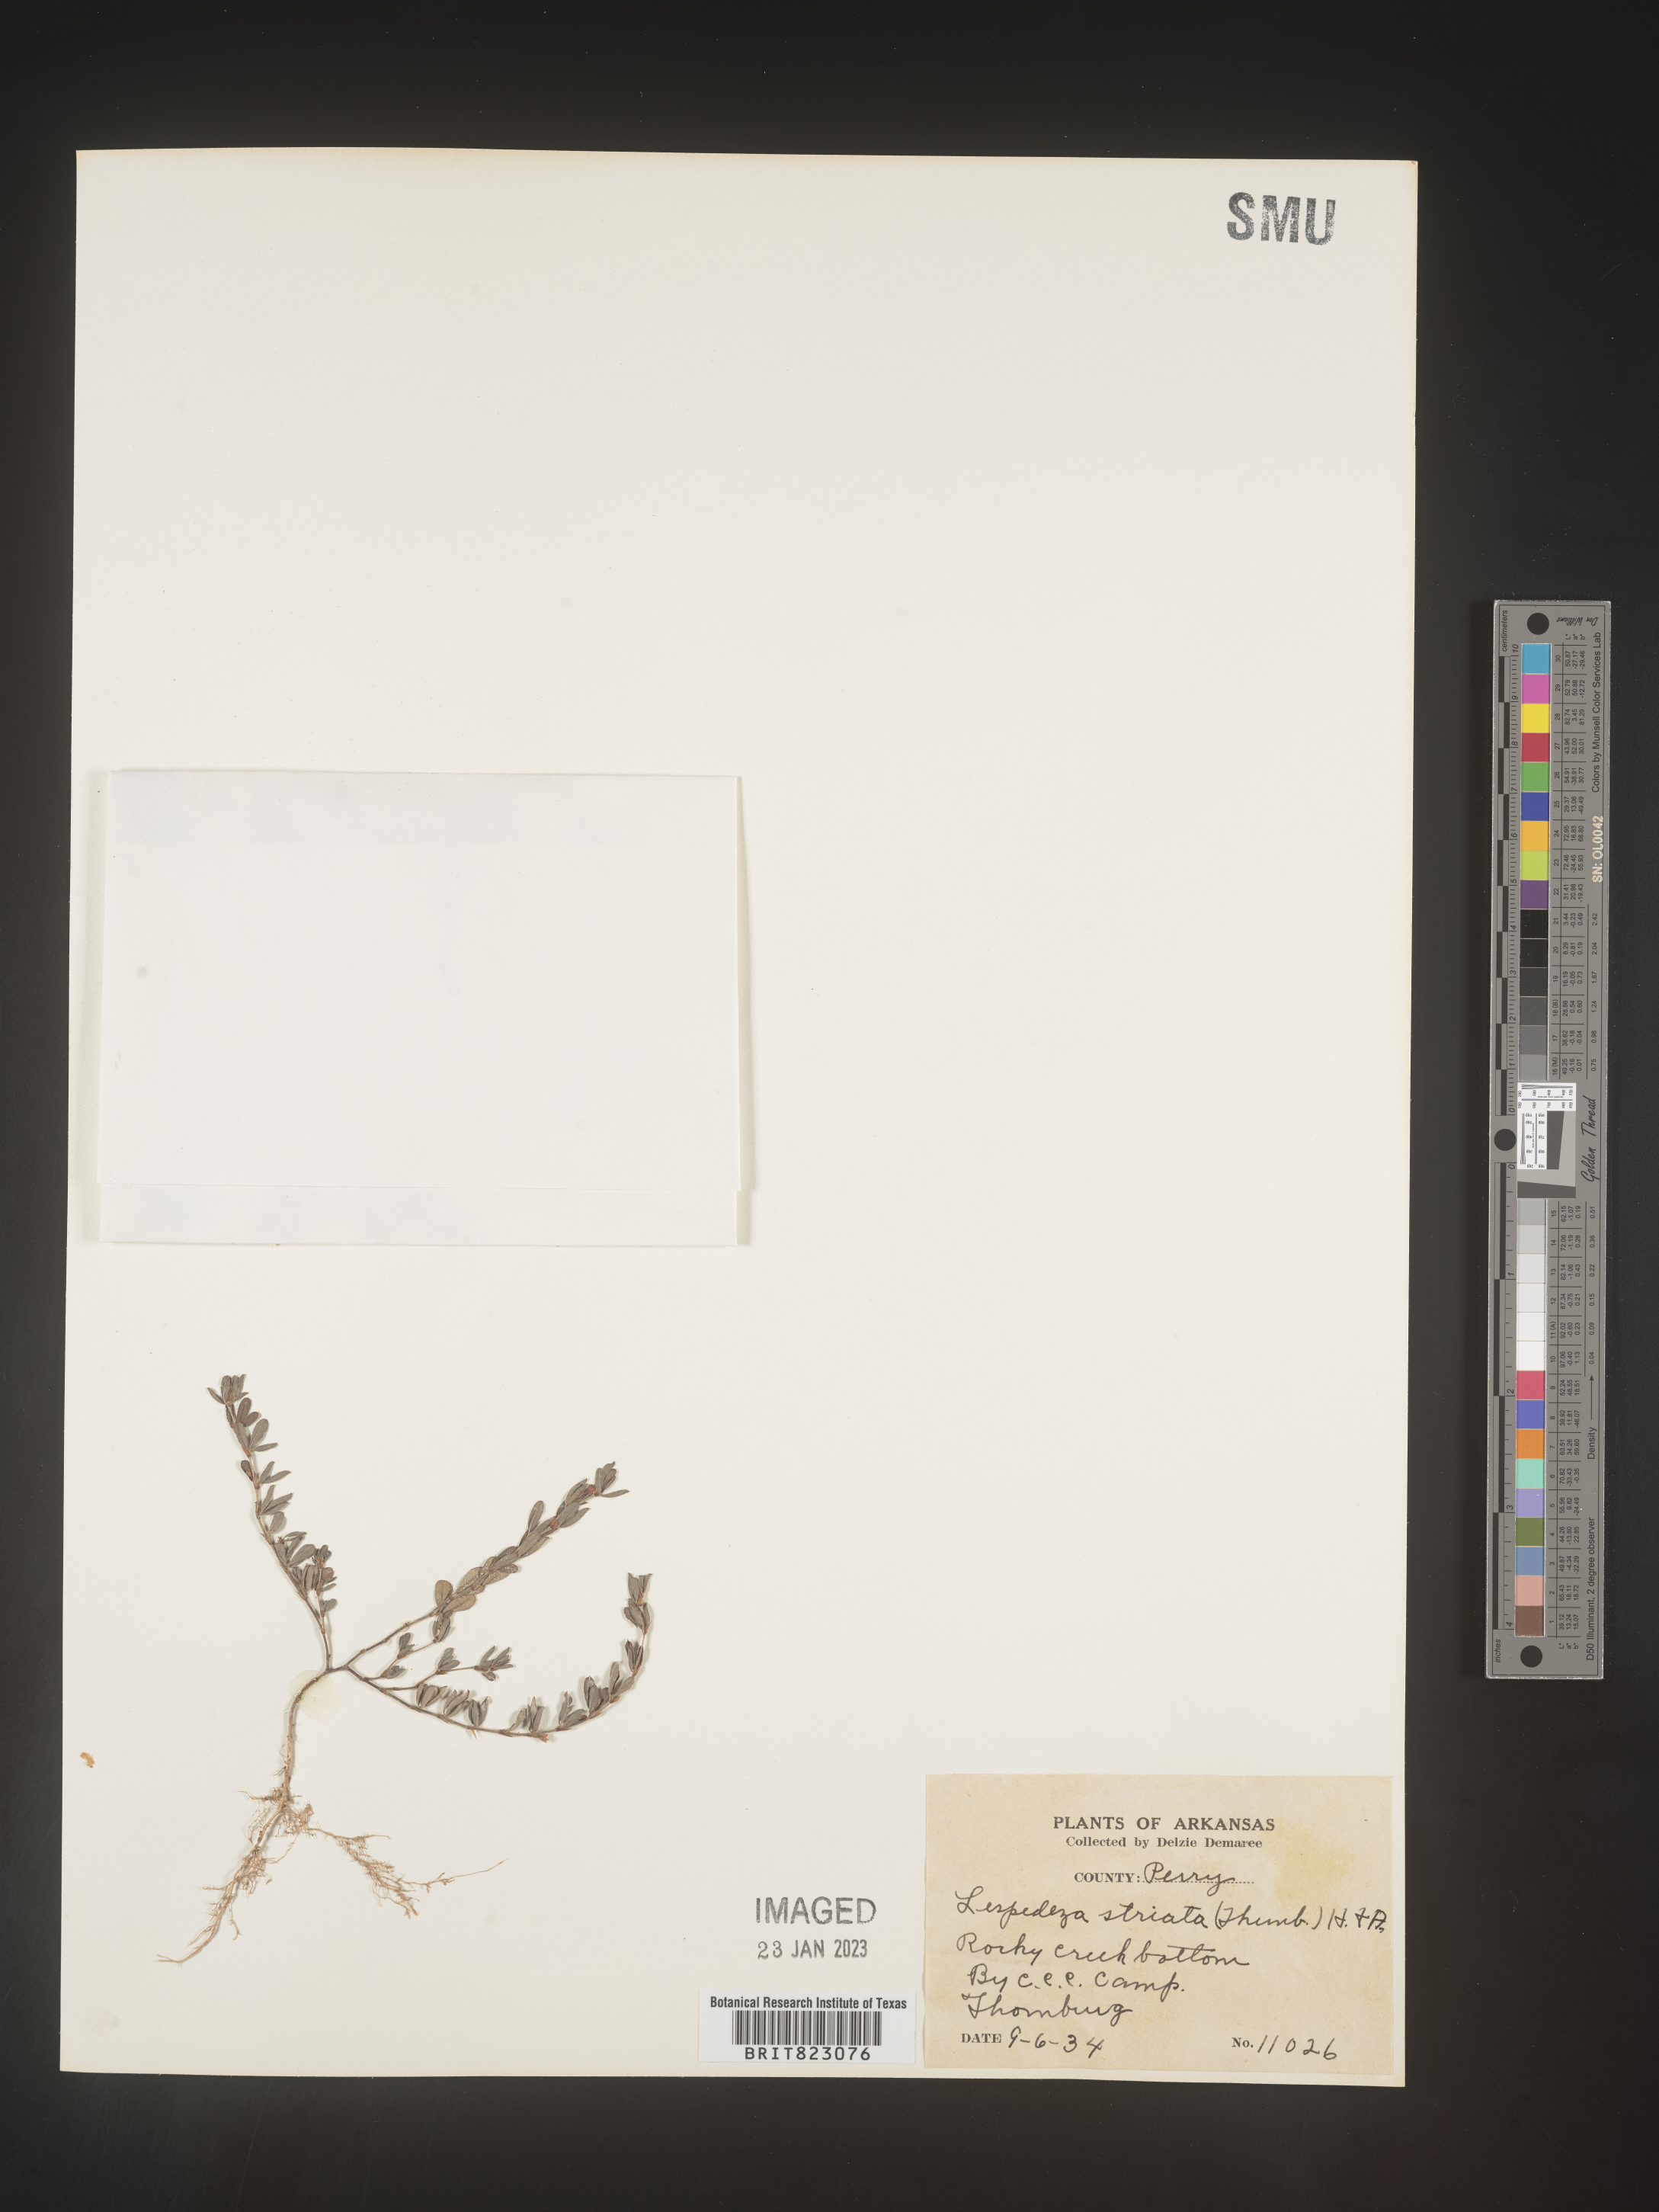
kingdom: Plantae
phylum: Tracheophyta
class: Magnoliopsida
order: Fabales
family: Fabaceae
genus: Kummerowia
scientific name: Kummerowia striata
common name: Japanese clover
